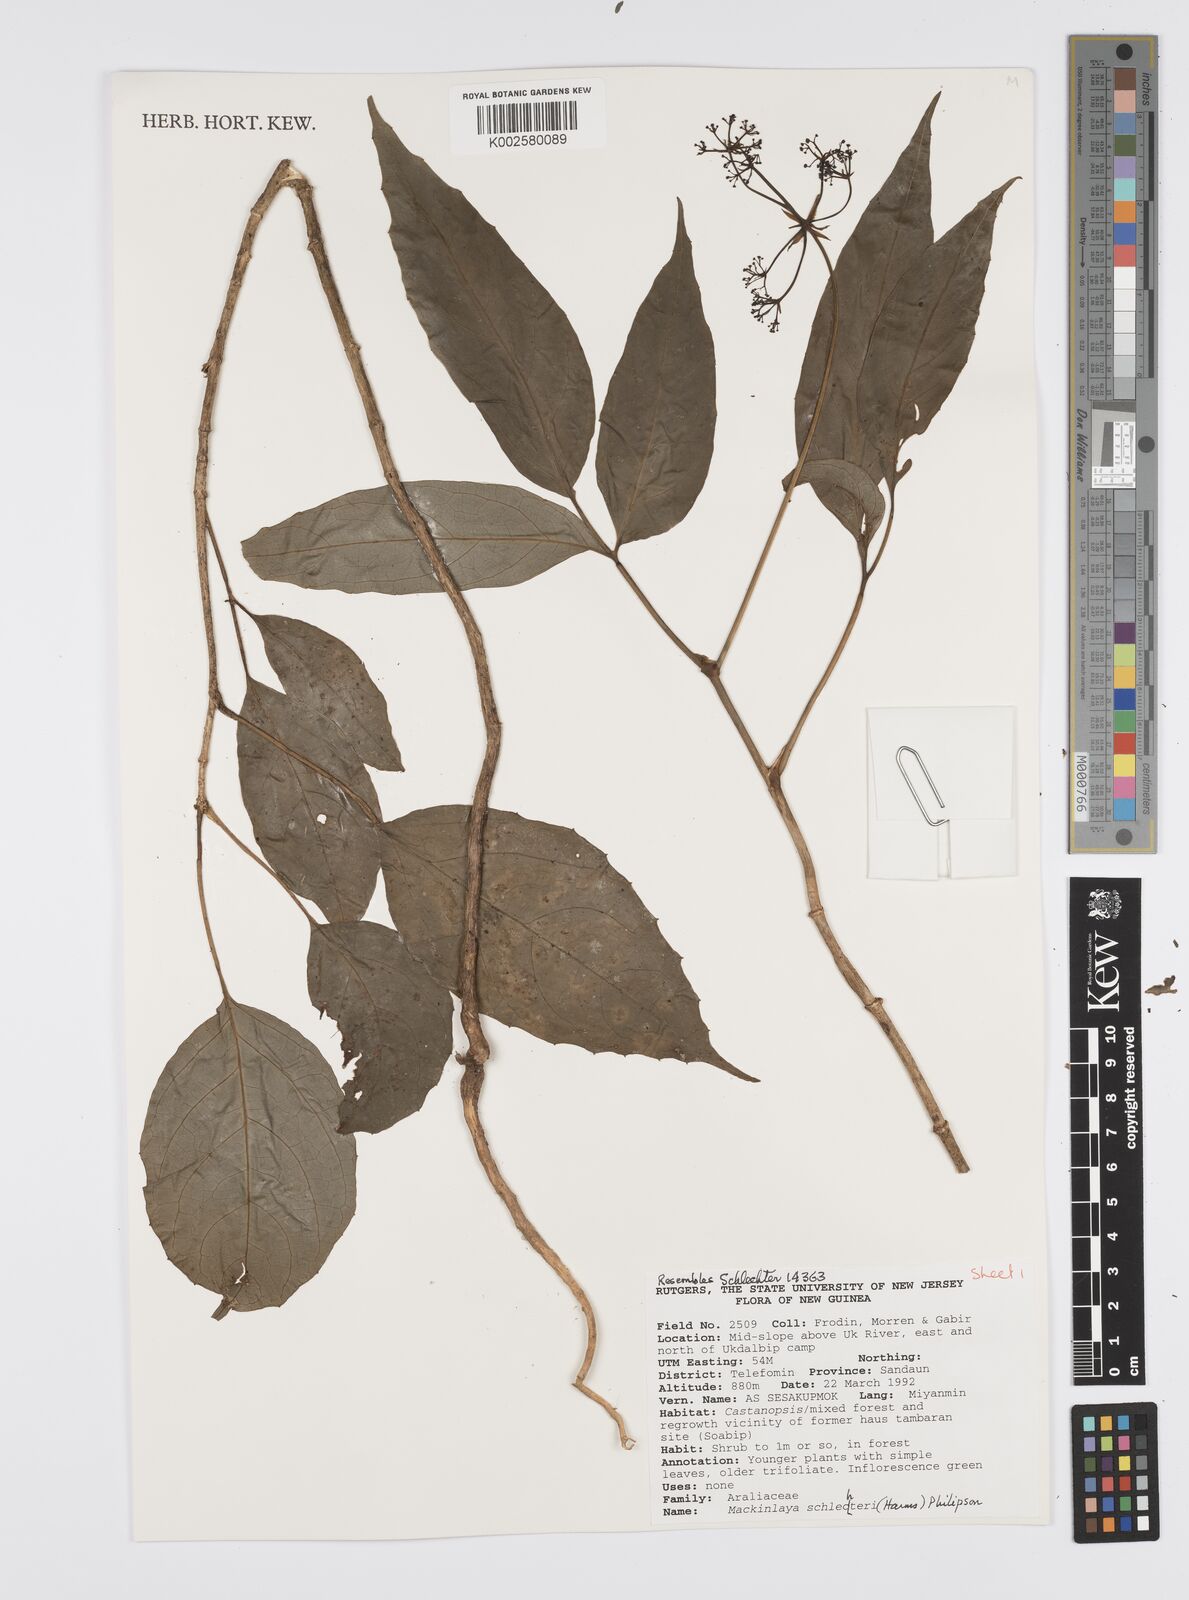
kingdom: Plantae
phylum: Tracheophyta
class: Magnoliopsida
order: Apiales
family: Apiaceae
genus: Mackinlaya
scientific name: Mackinlaya schlechteri
